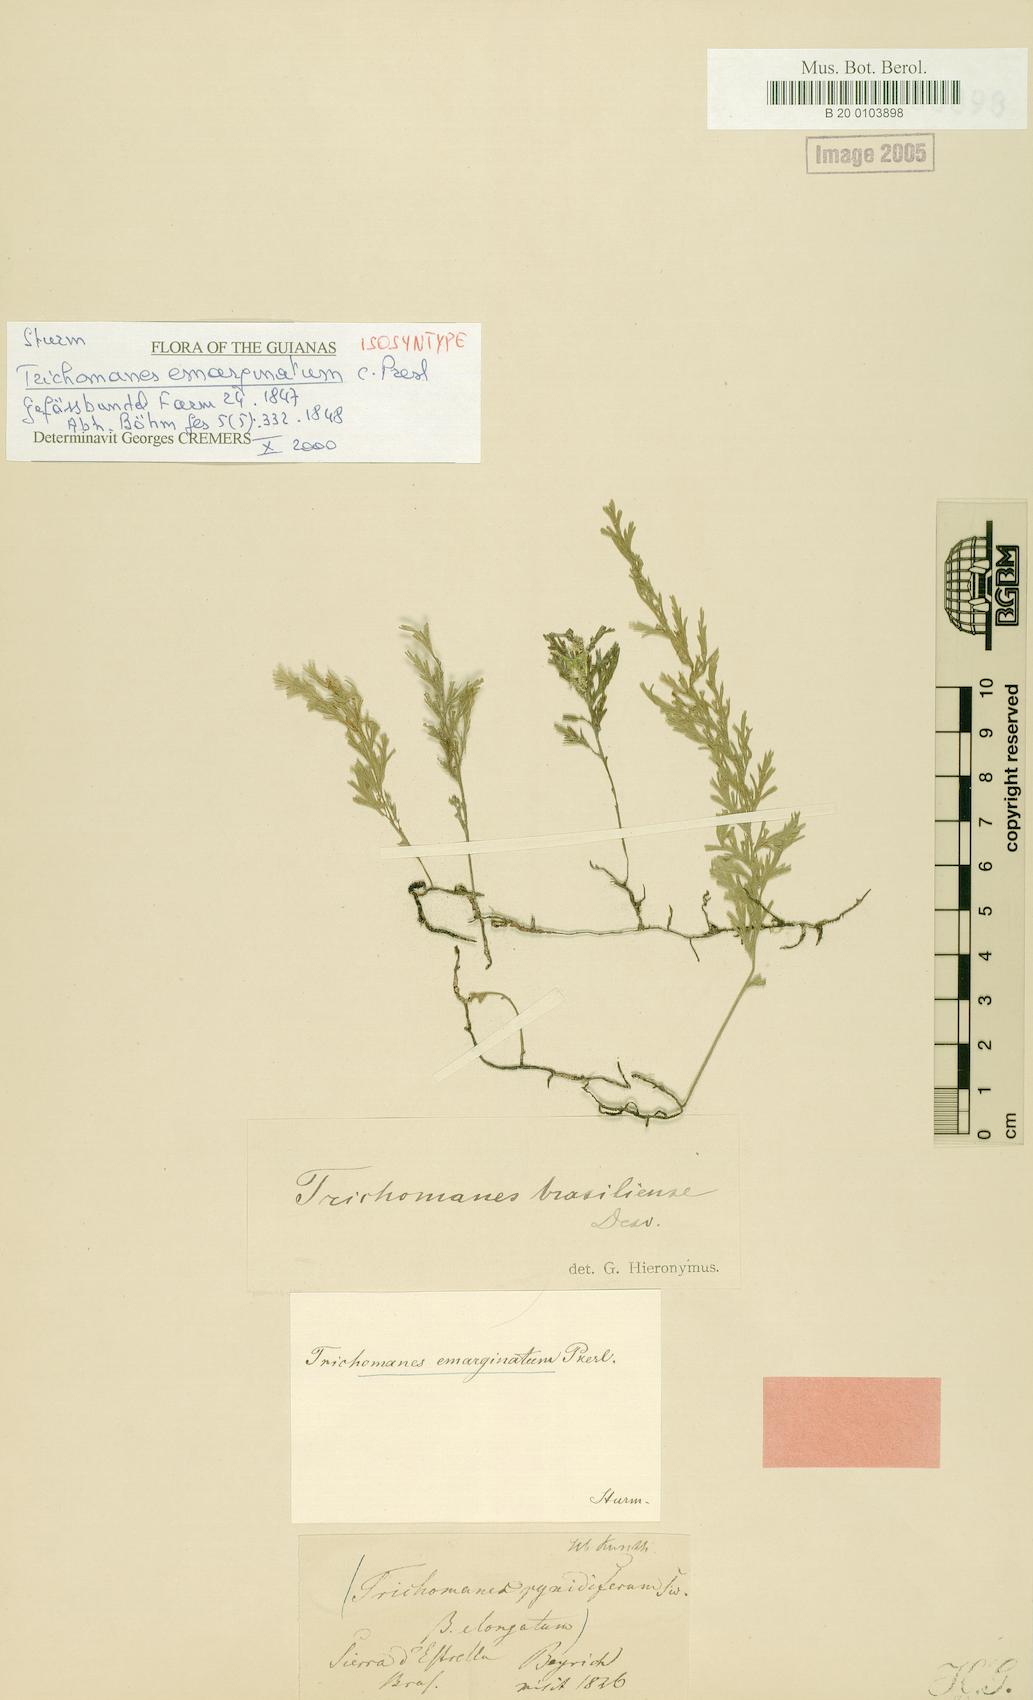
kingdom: Plantae
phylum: Tracheophyta
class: Polypodiopsida
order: Hymenophyllales
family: Hymenophyllaceae
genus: Polyphlebium
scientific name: Polyphlebium pyxidiferum
